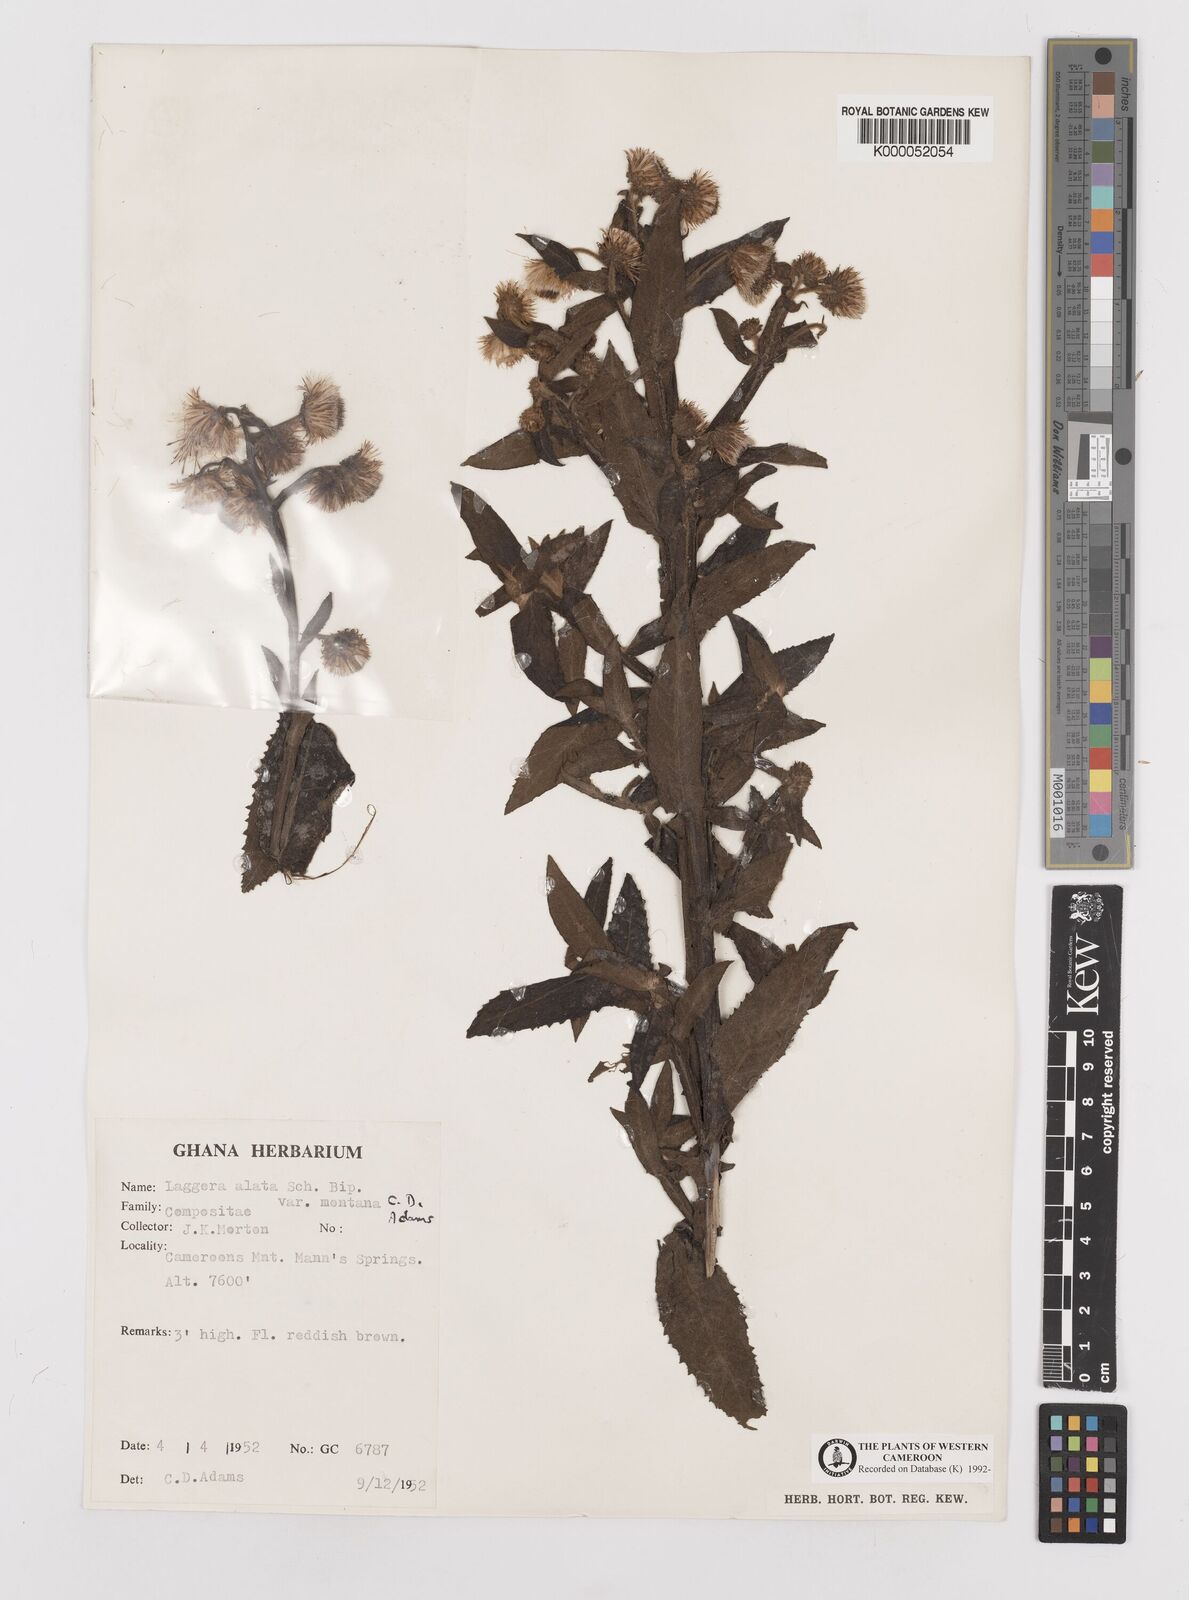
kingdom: Plantae
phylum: Tracheophyta
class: Magnoliopsida
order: Asterales
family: Asteraceae
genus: Laggera
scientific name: Laggera crispata
